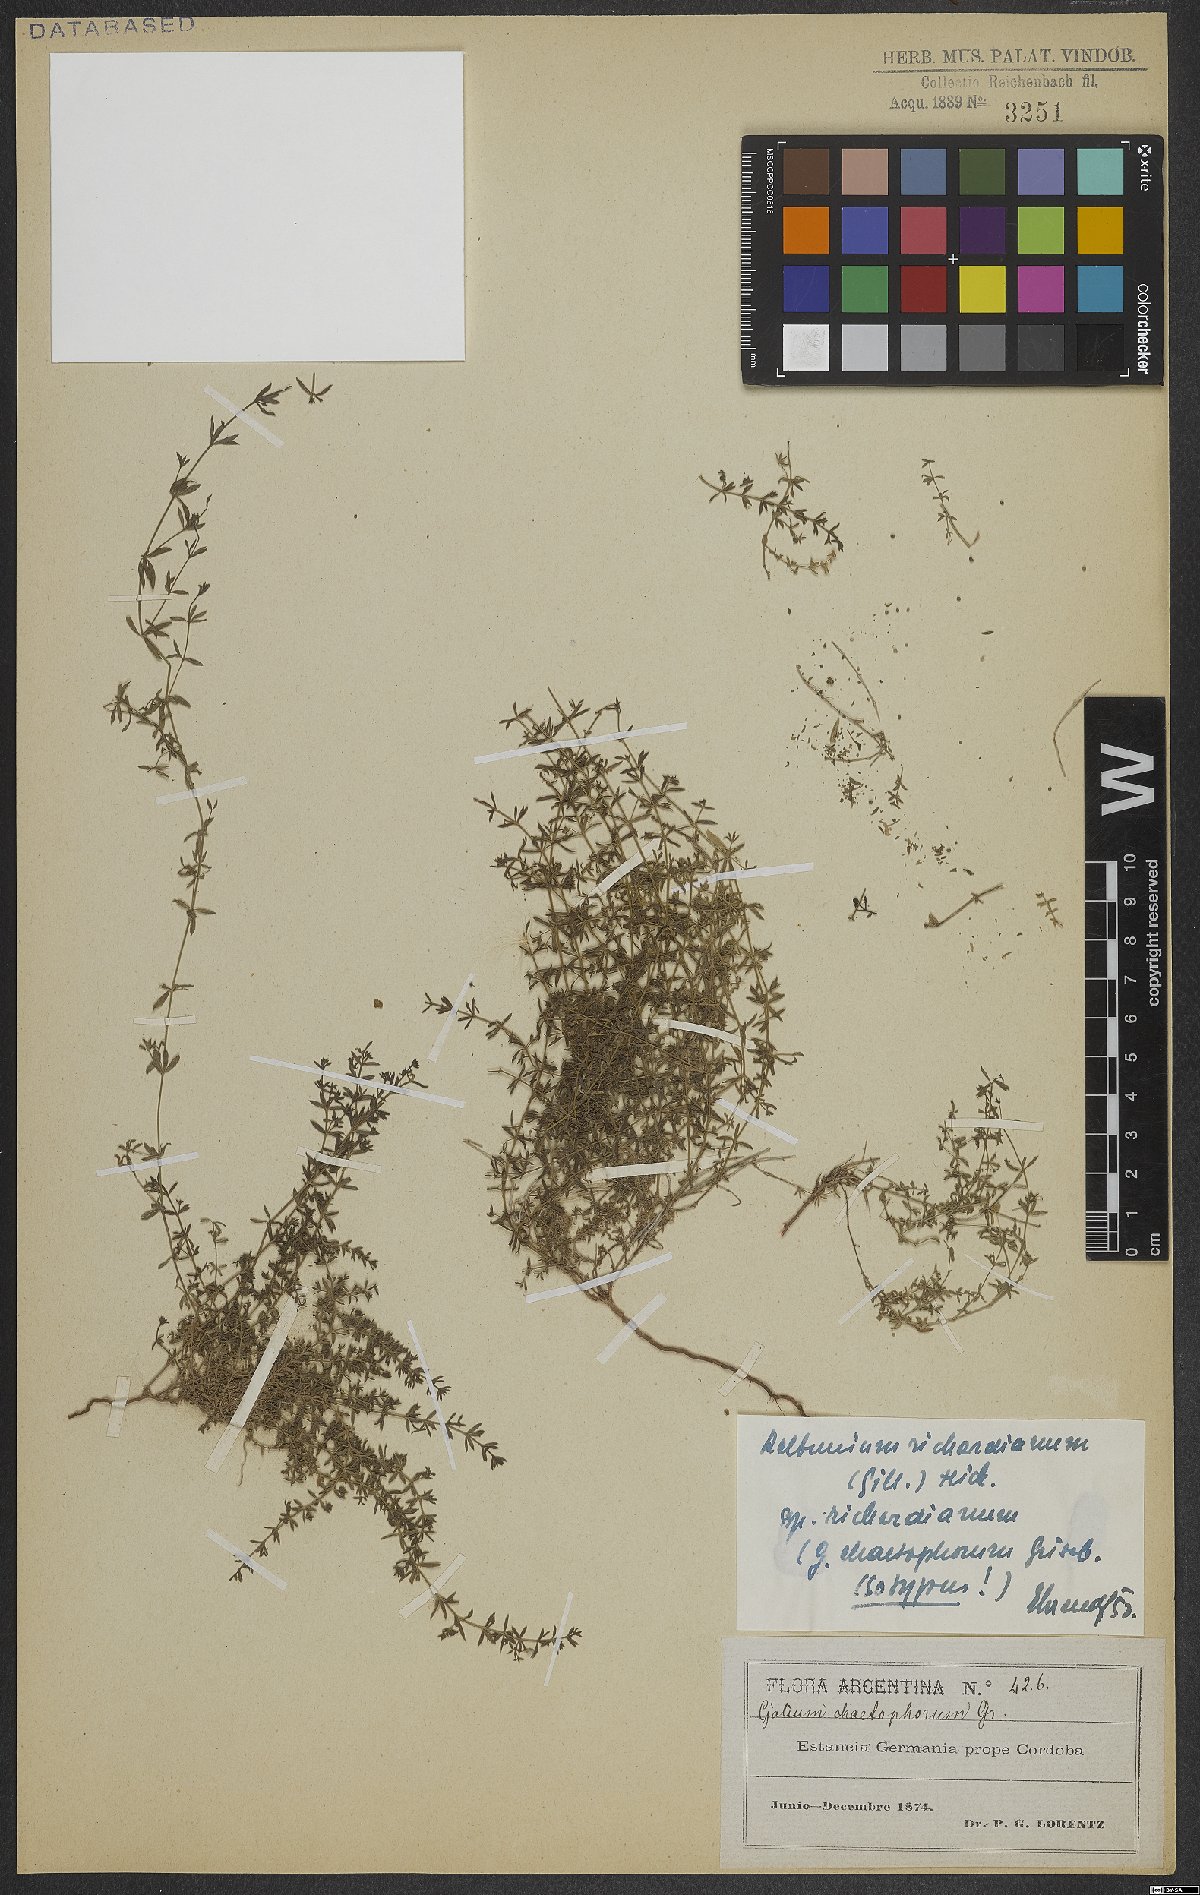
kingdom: Plantae
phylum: Tracheophyta
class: Magnoliopsida
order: Gentianales
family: Rubiaceae
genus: Galium
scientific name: Galium richardianum
